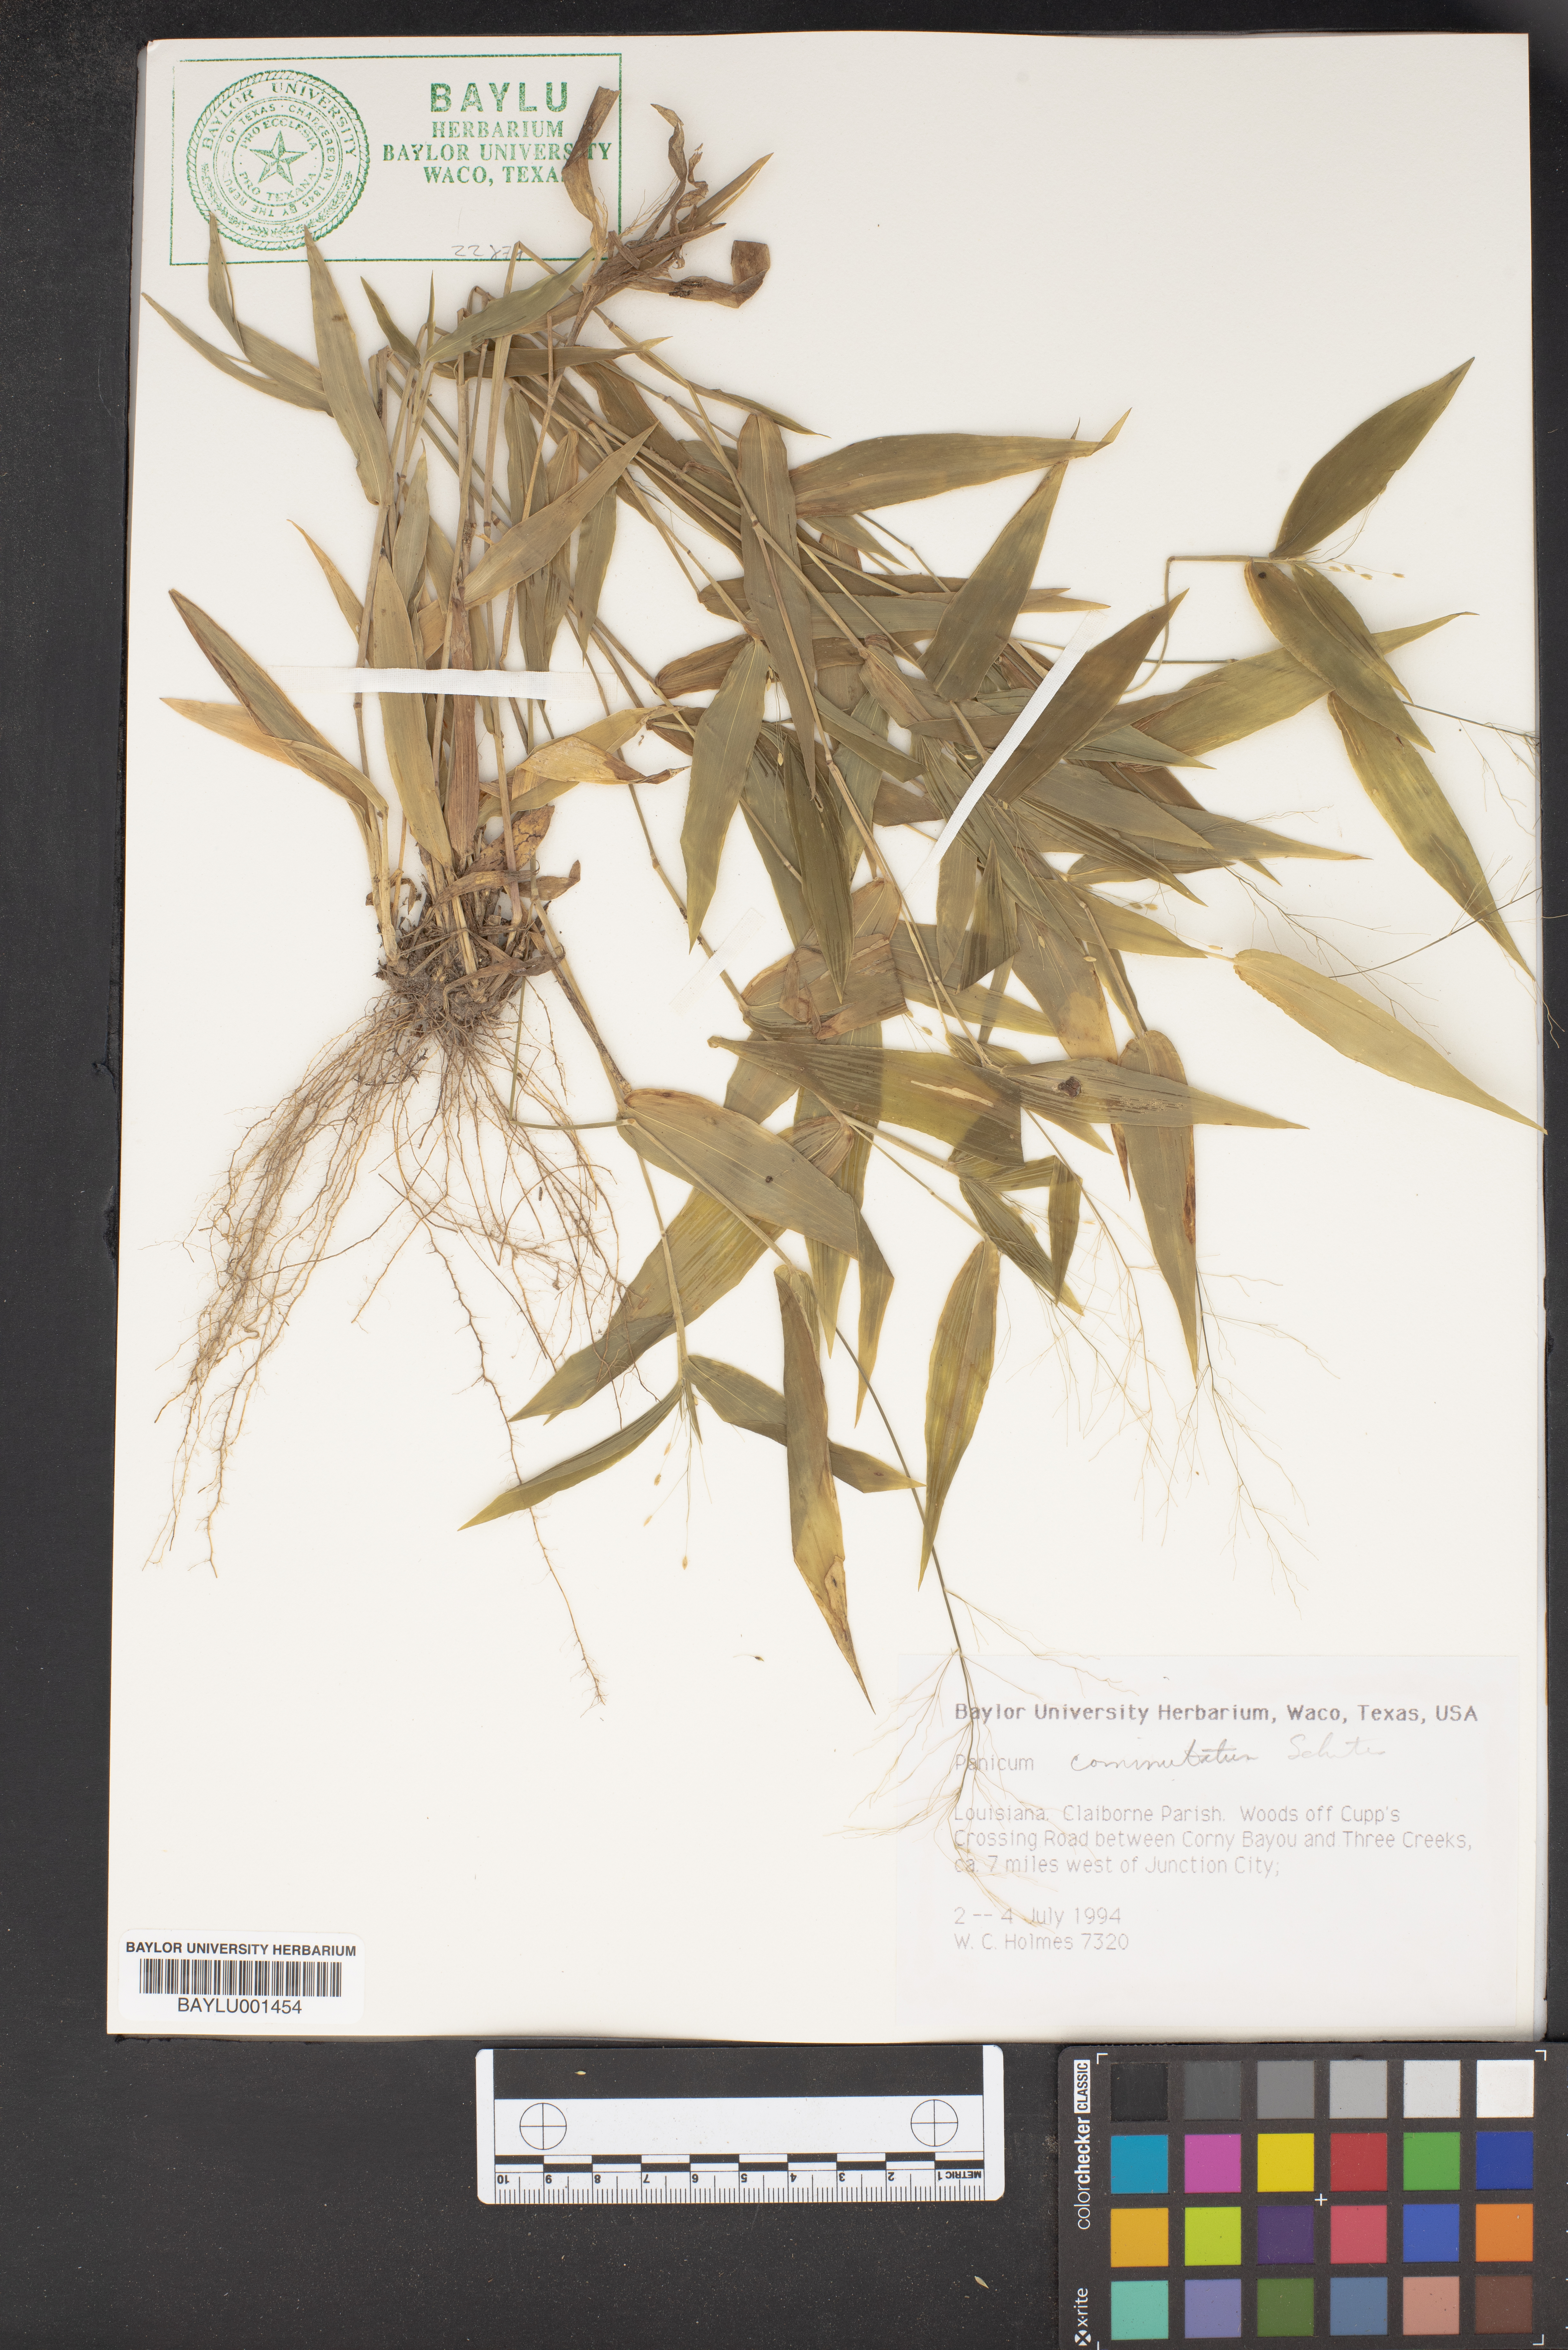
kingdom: Plantae
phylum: Tracheophyta
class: Liliopsida
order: Poales
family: Poaceae
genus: Dichanthelium
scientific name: Dichanthelium commutatum
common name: Variable witchgrass
